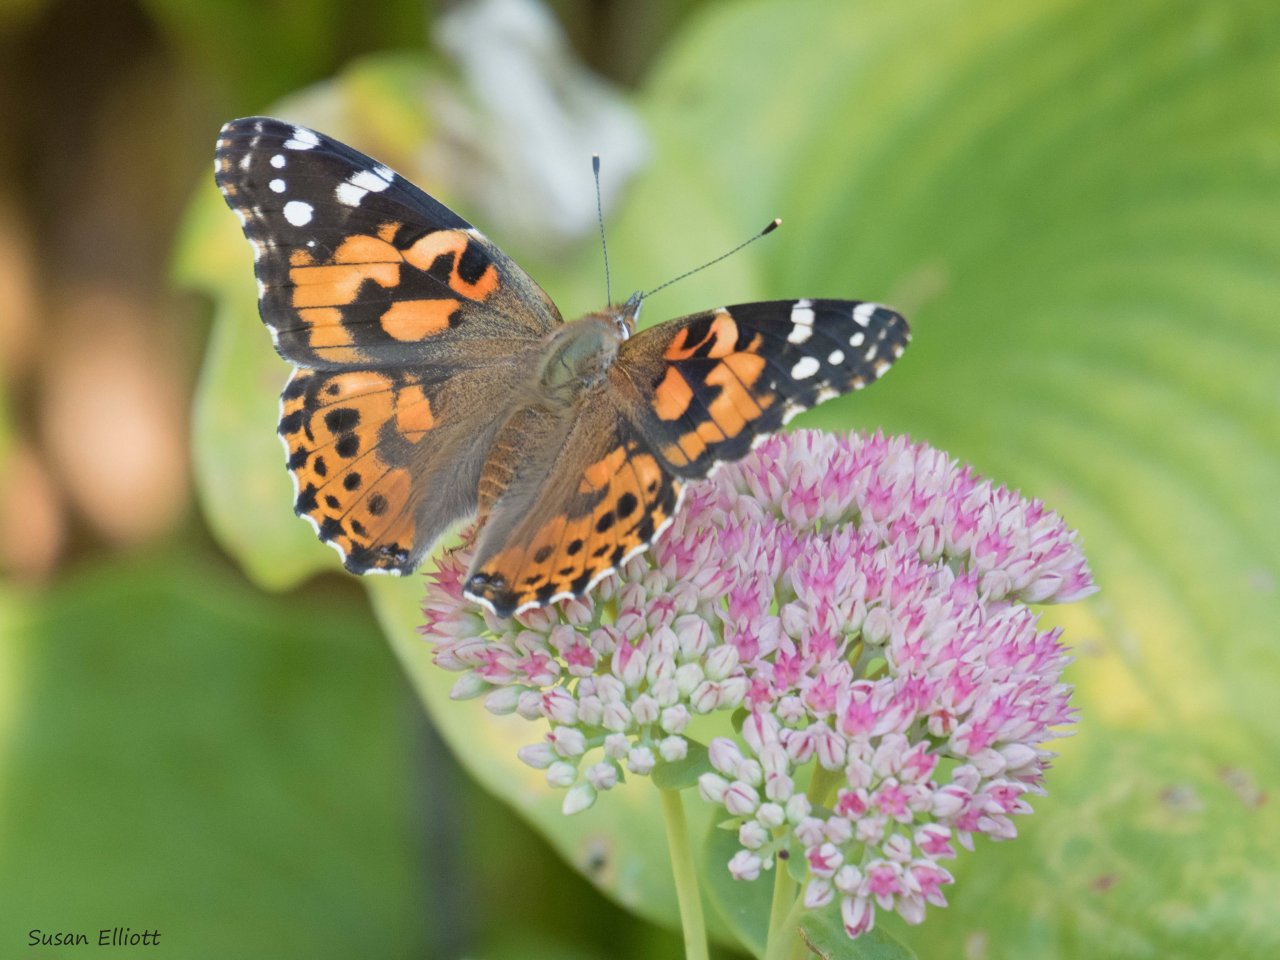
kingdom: Animalia
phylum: Arthropoda
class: Insecta
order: Lepidoptera
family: Nymphalidae
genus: Vanessa
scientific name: Vanessa cardui
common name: Painted Lady
